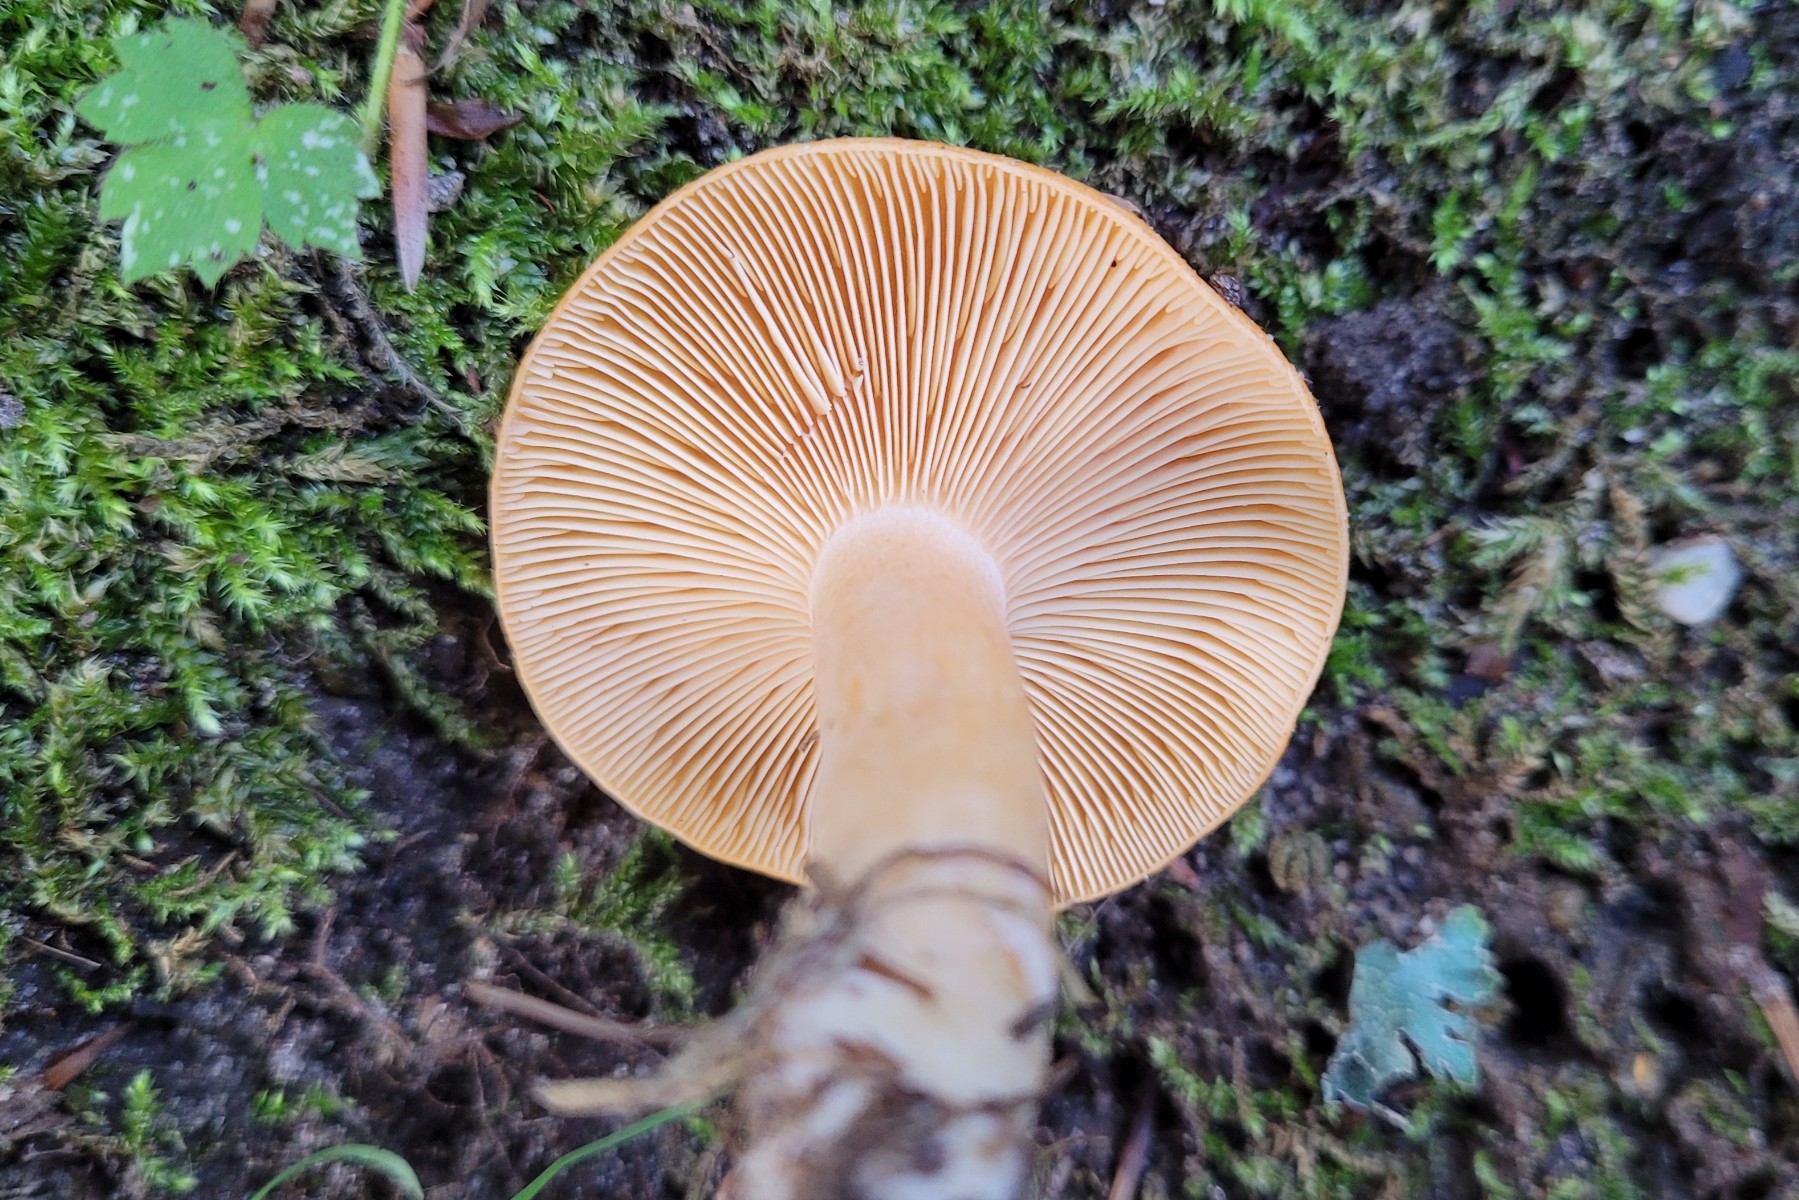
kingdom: Fungi
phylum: Basidiomycota
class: Agaricomycetes
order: Russulales
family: Russulaceae
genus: Lactarius
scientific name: Lactarius porninsis
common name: lærke-mælkehat
